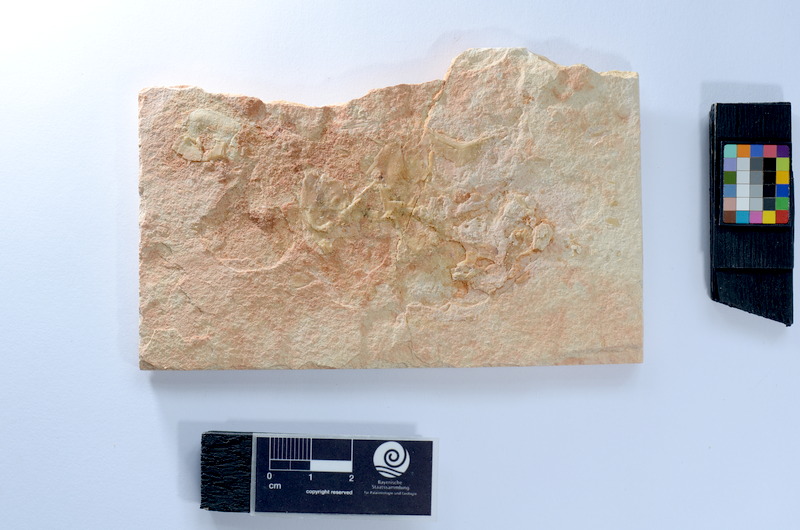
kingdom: Animalia
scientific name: Animalia
